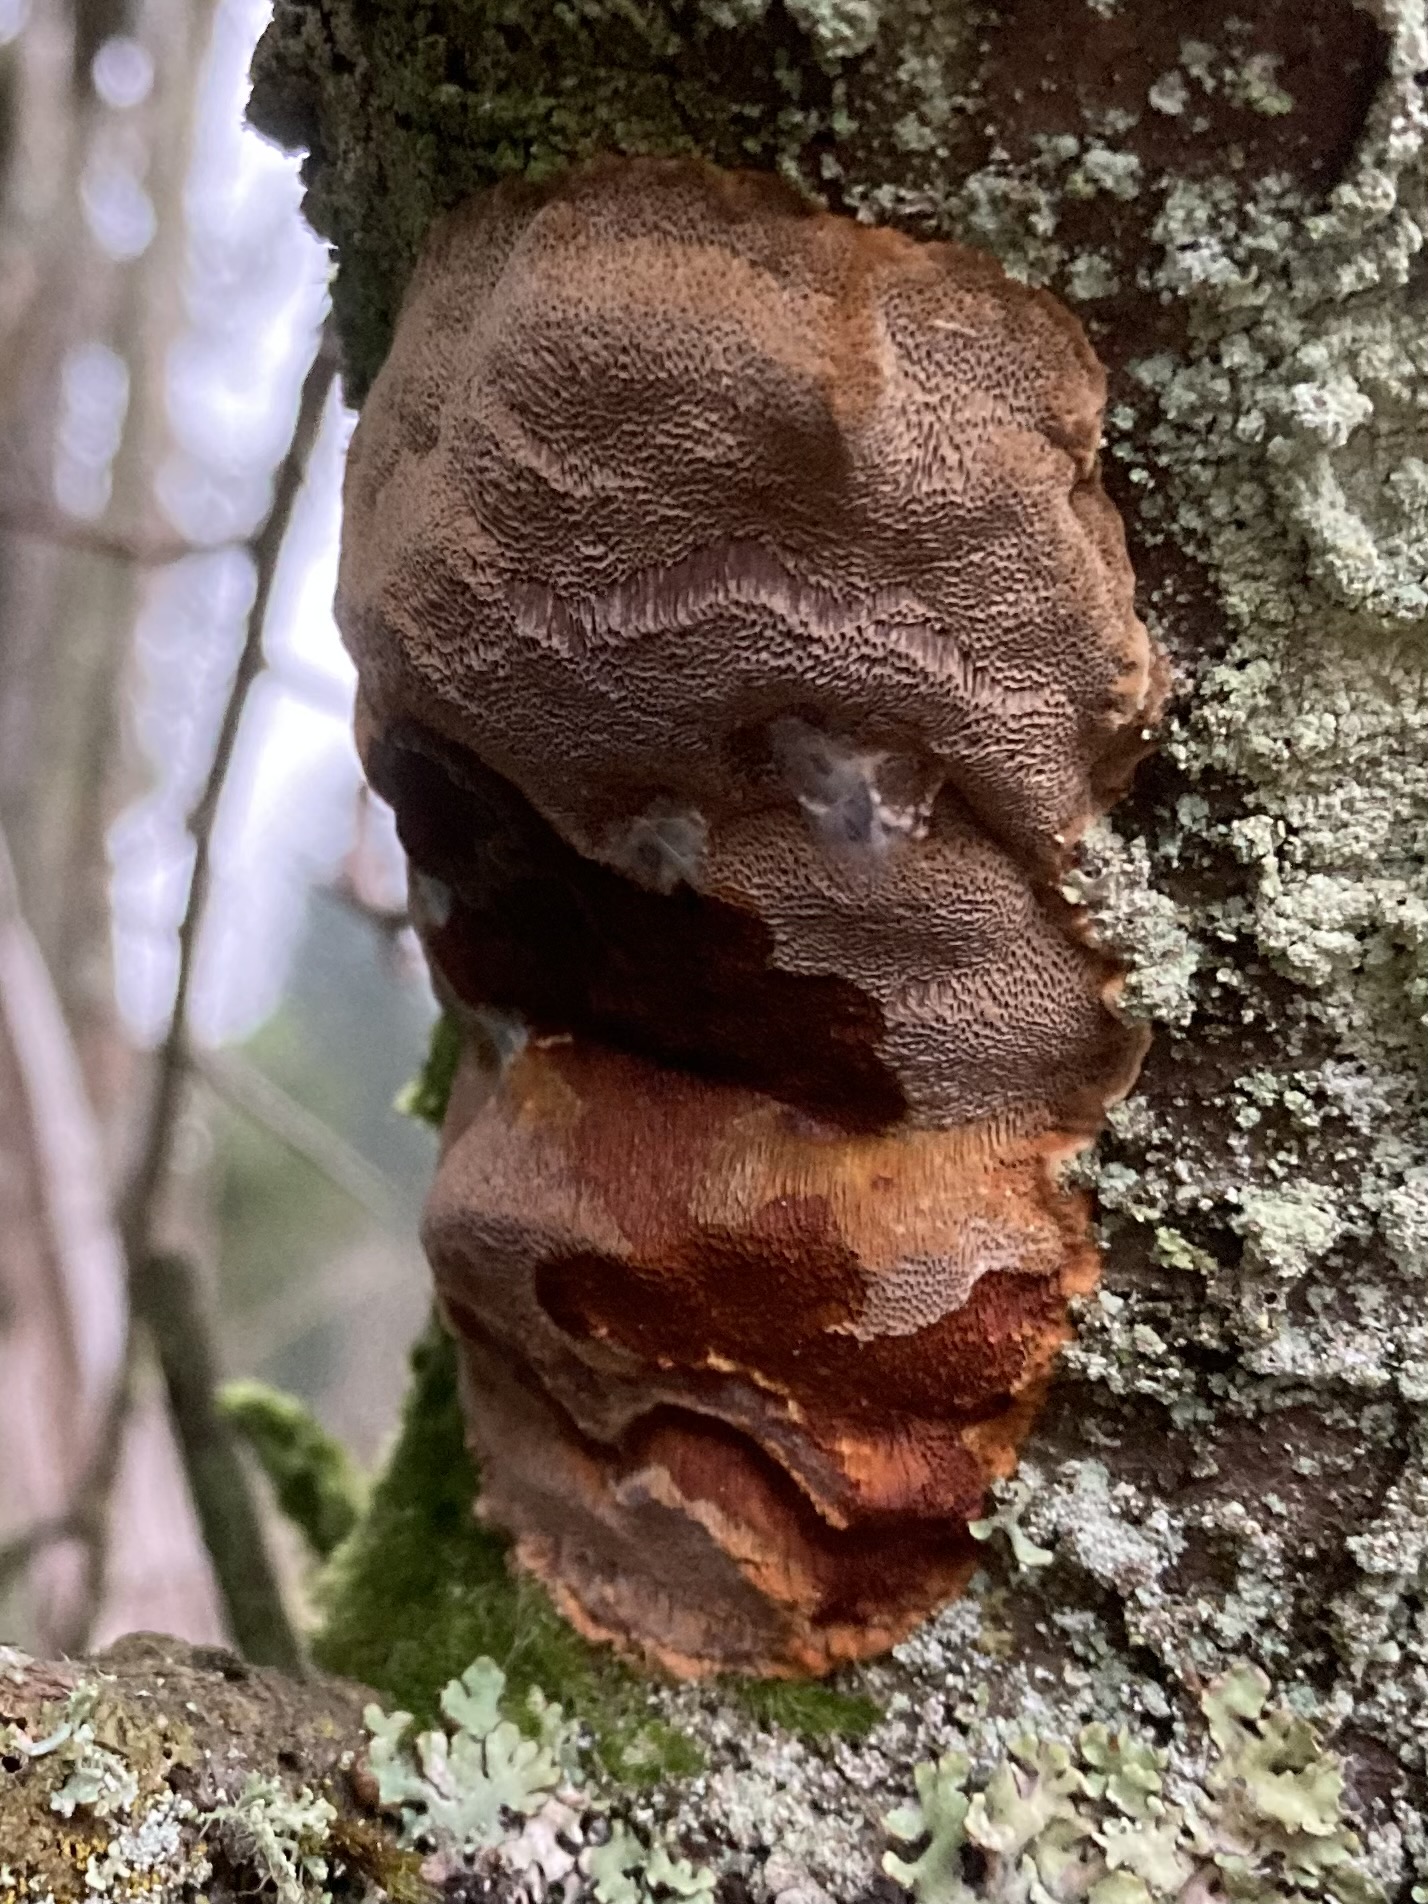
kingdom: Fungi
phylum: Basidiomycota
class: Agaricomycetes
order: Hymenochaetales
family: Hymenochaetaceae
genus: Phellinus
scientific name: Phellinus pomaceus
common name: blomme-ildporesvamp
